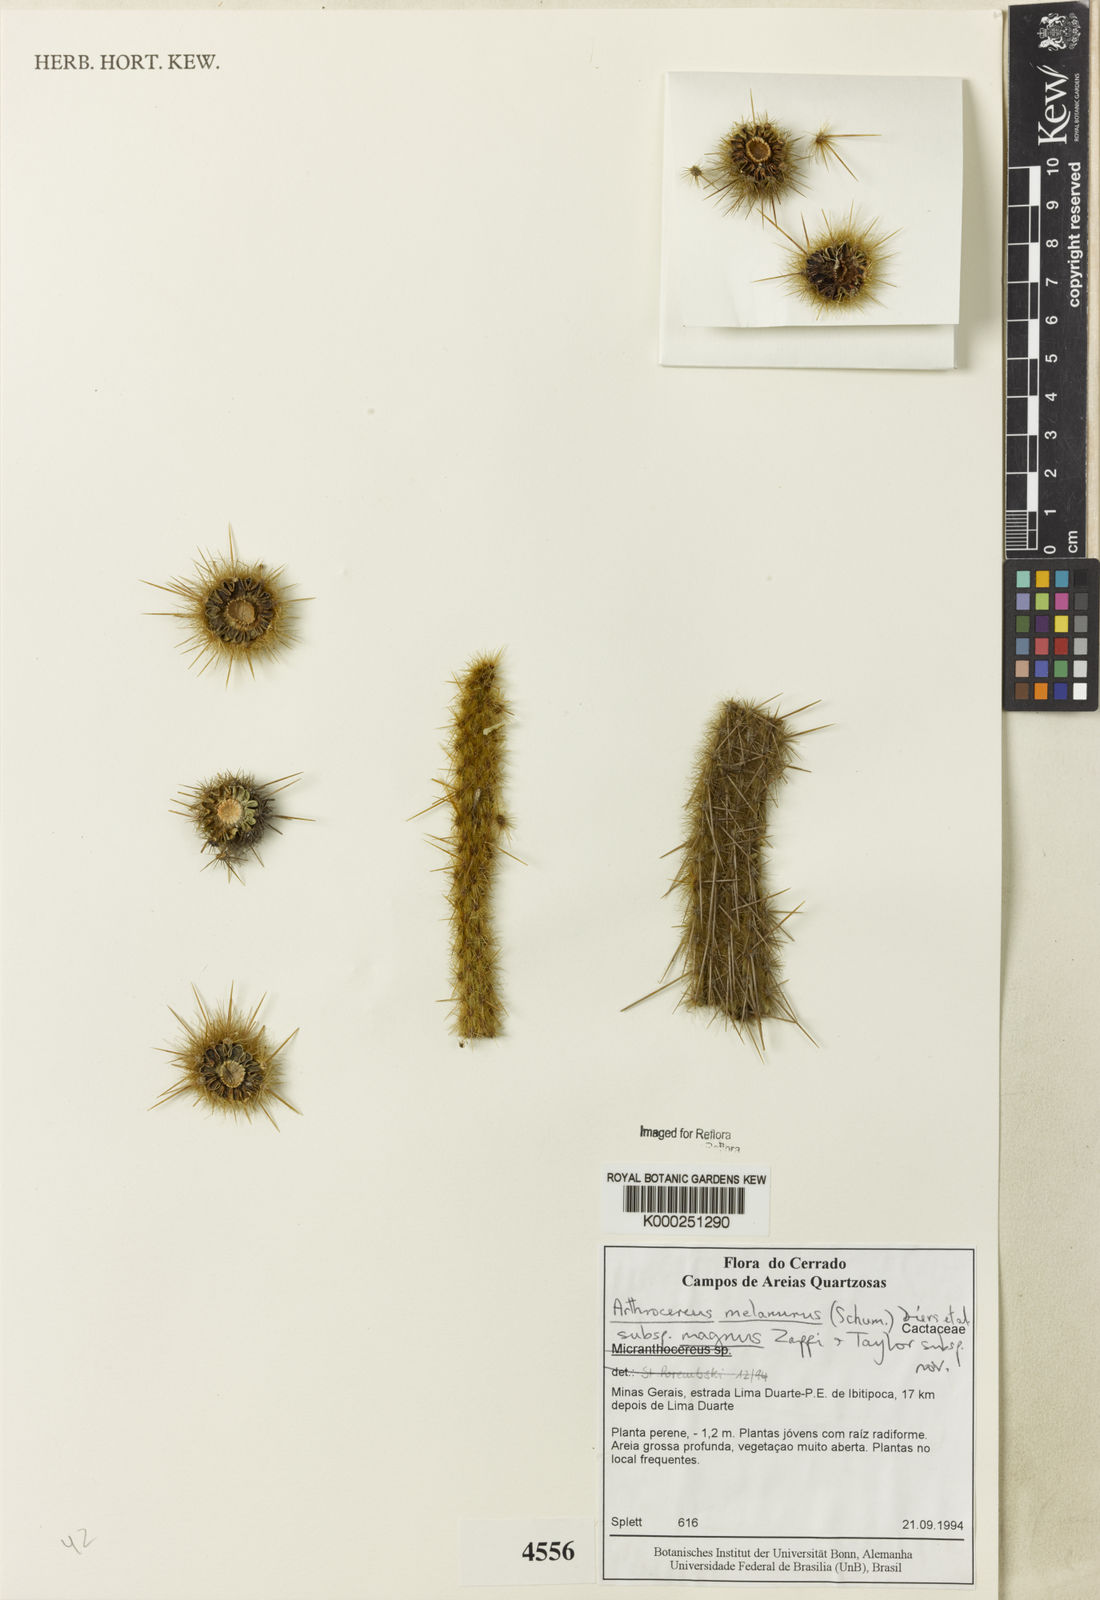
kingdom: Plantae
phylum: Tracheophyta
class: Magnoliopsida
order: Caryophyllales
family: Cactaceae
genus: Arthrocereus
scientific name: Arthrocereus melanurus
